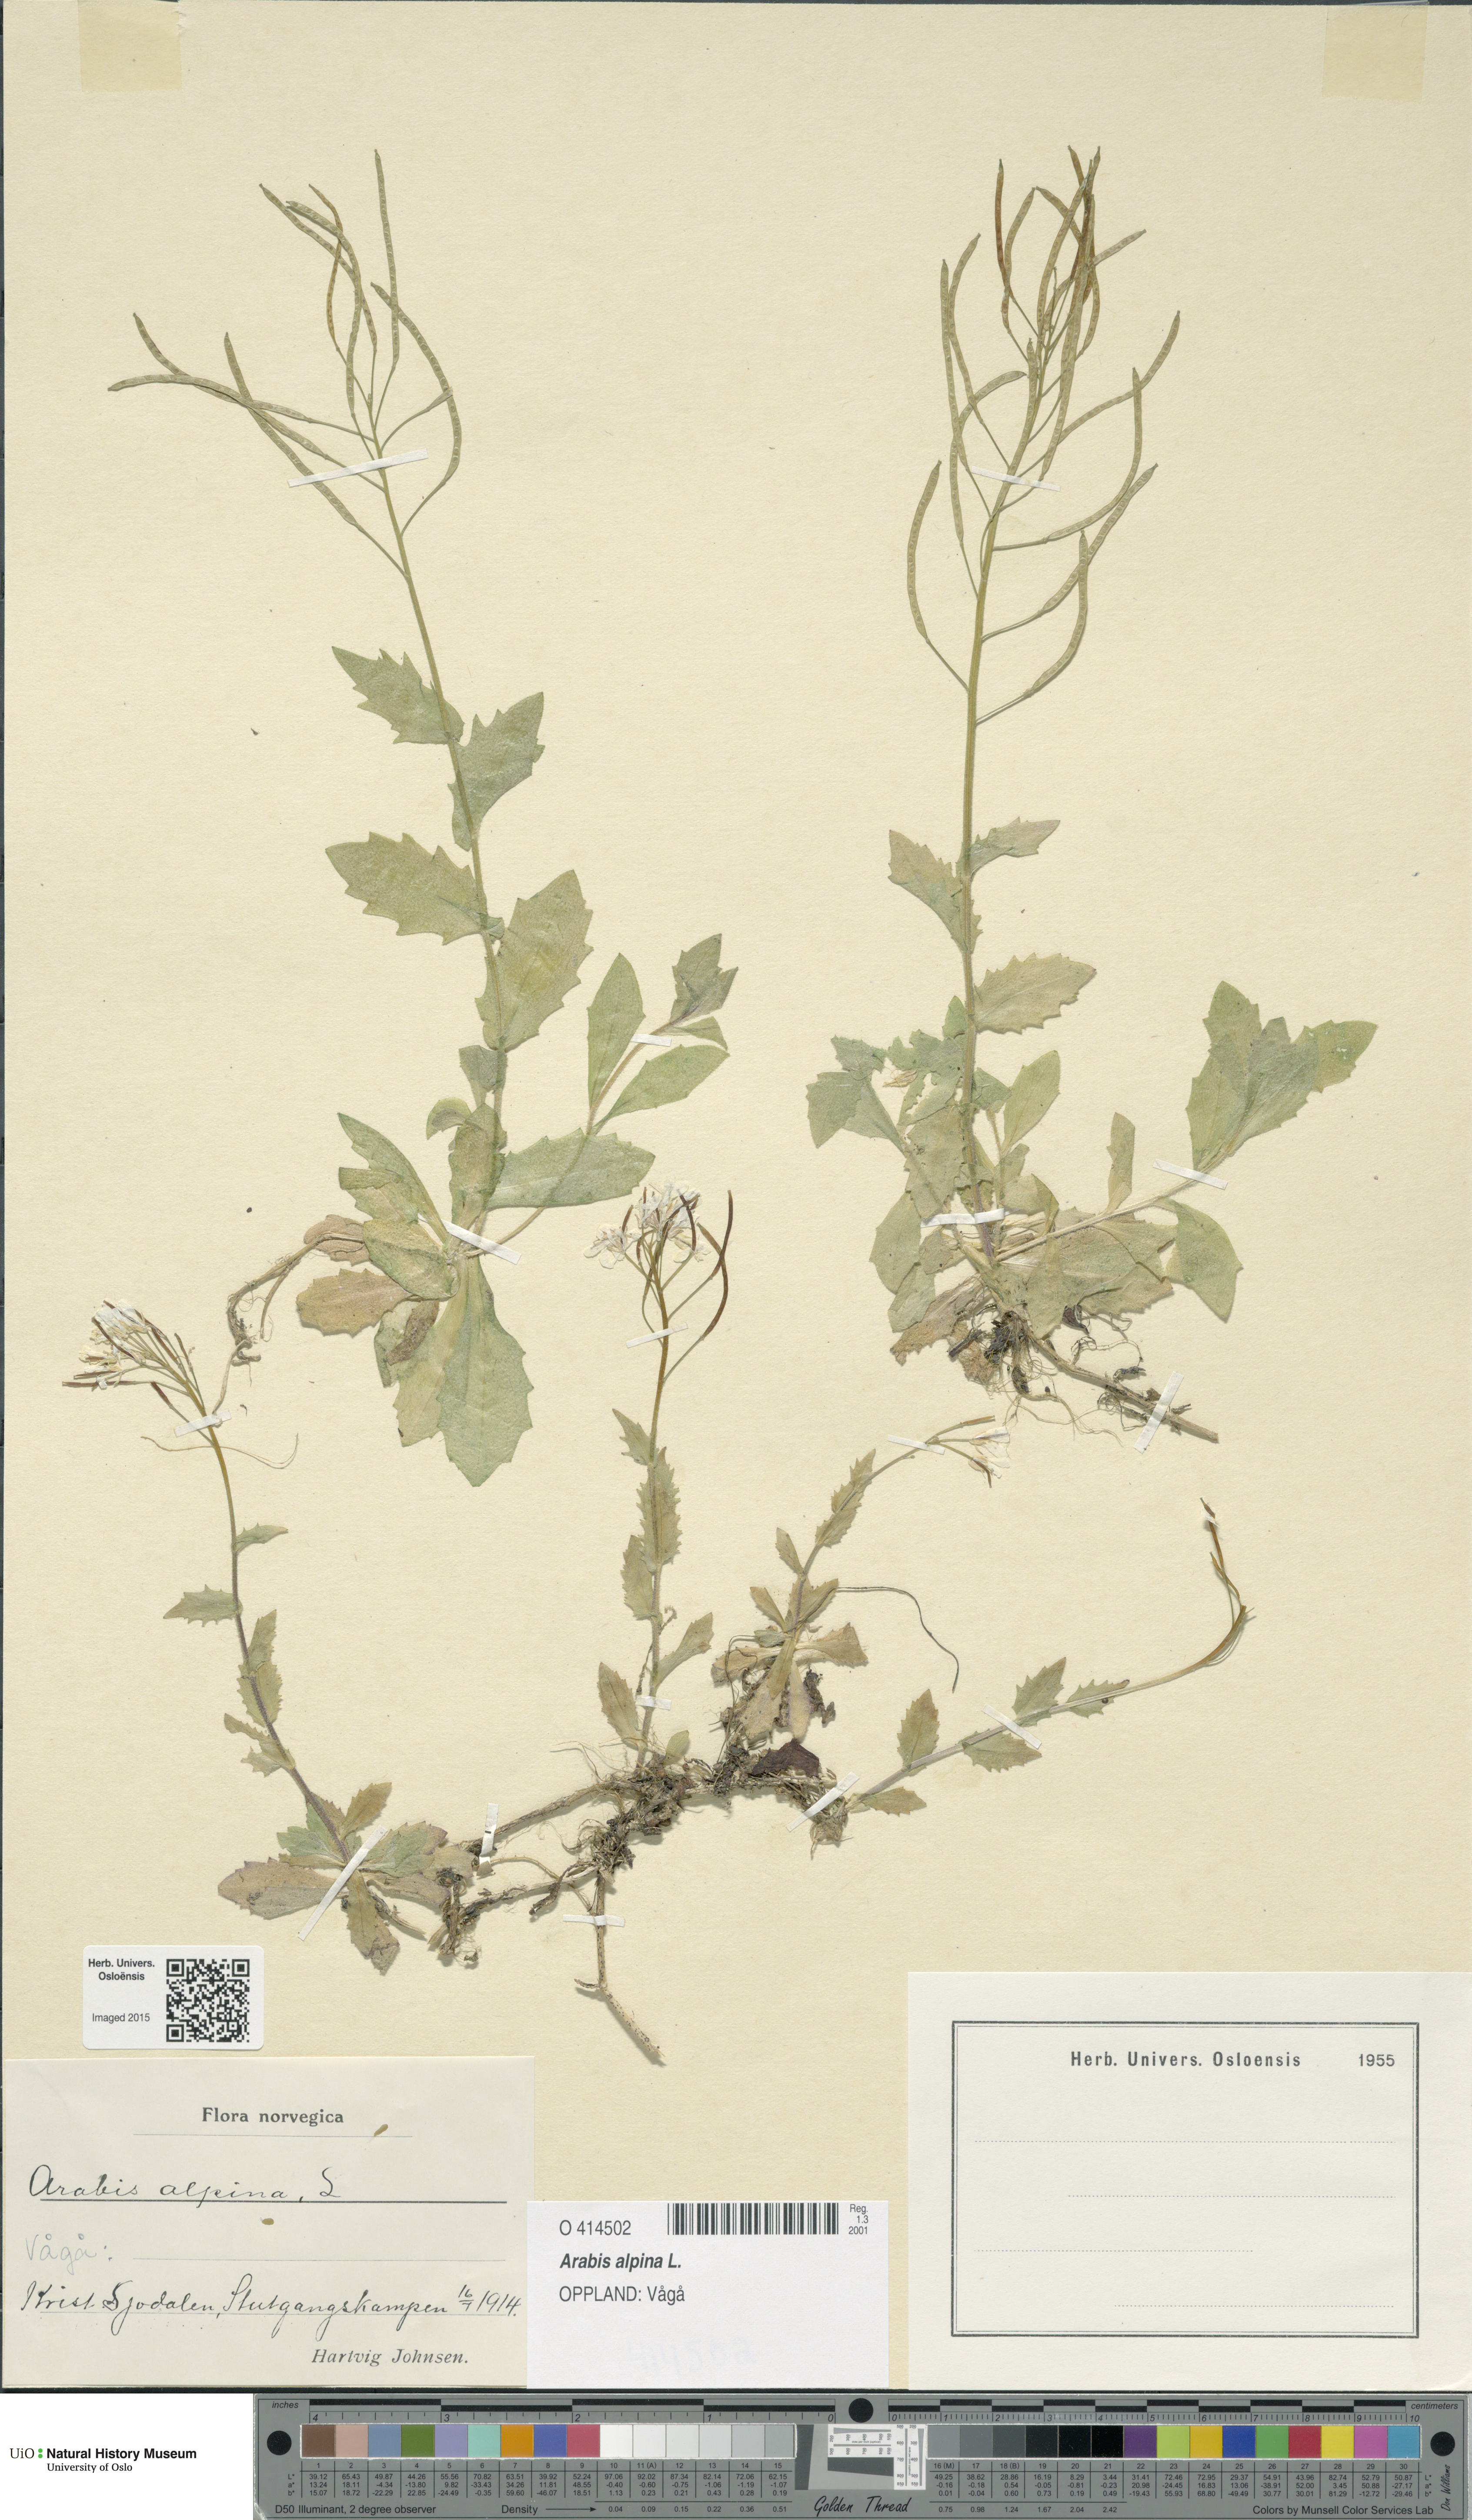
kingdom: Plantae
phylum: Tracheophyta
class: Magnoliopsida
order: Brassicales
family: Brassicaceae
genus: Arabis
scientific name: Arabis alpina
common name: Alpine rock-cress
